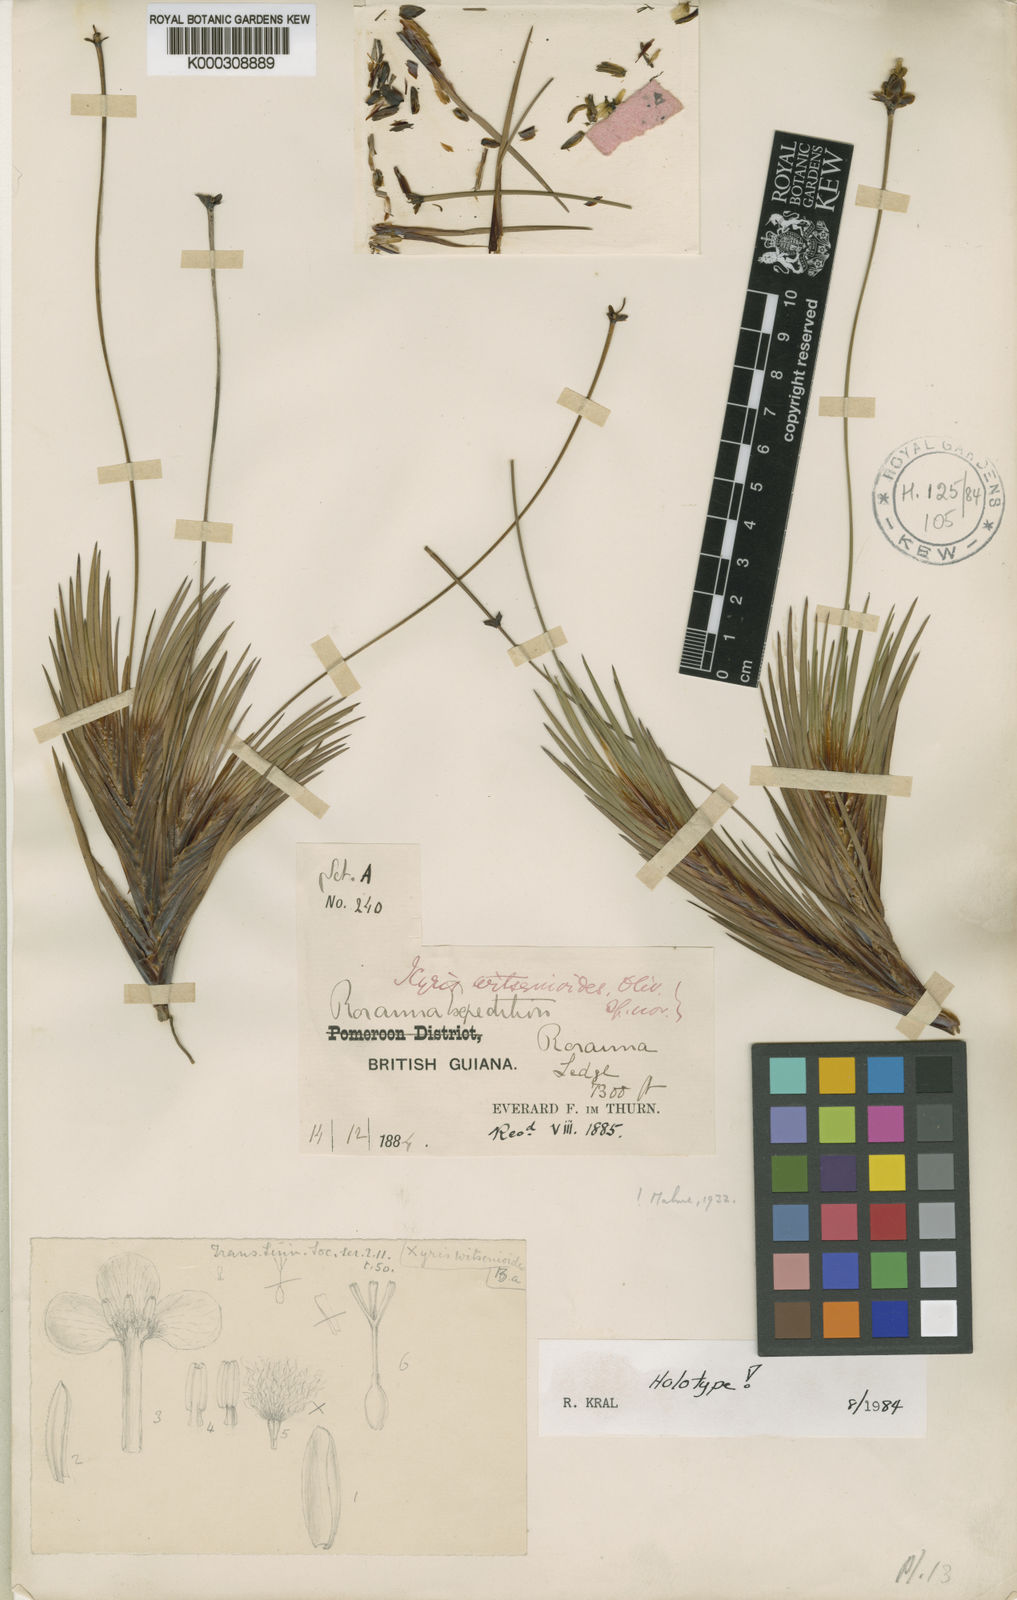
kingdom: Plantae
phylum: Tracheophyta
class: Liliopsida
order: Poales
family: Xyridaceae
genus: Xyris
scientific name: Xyris
